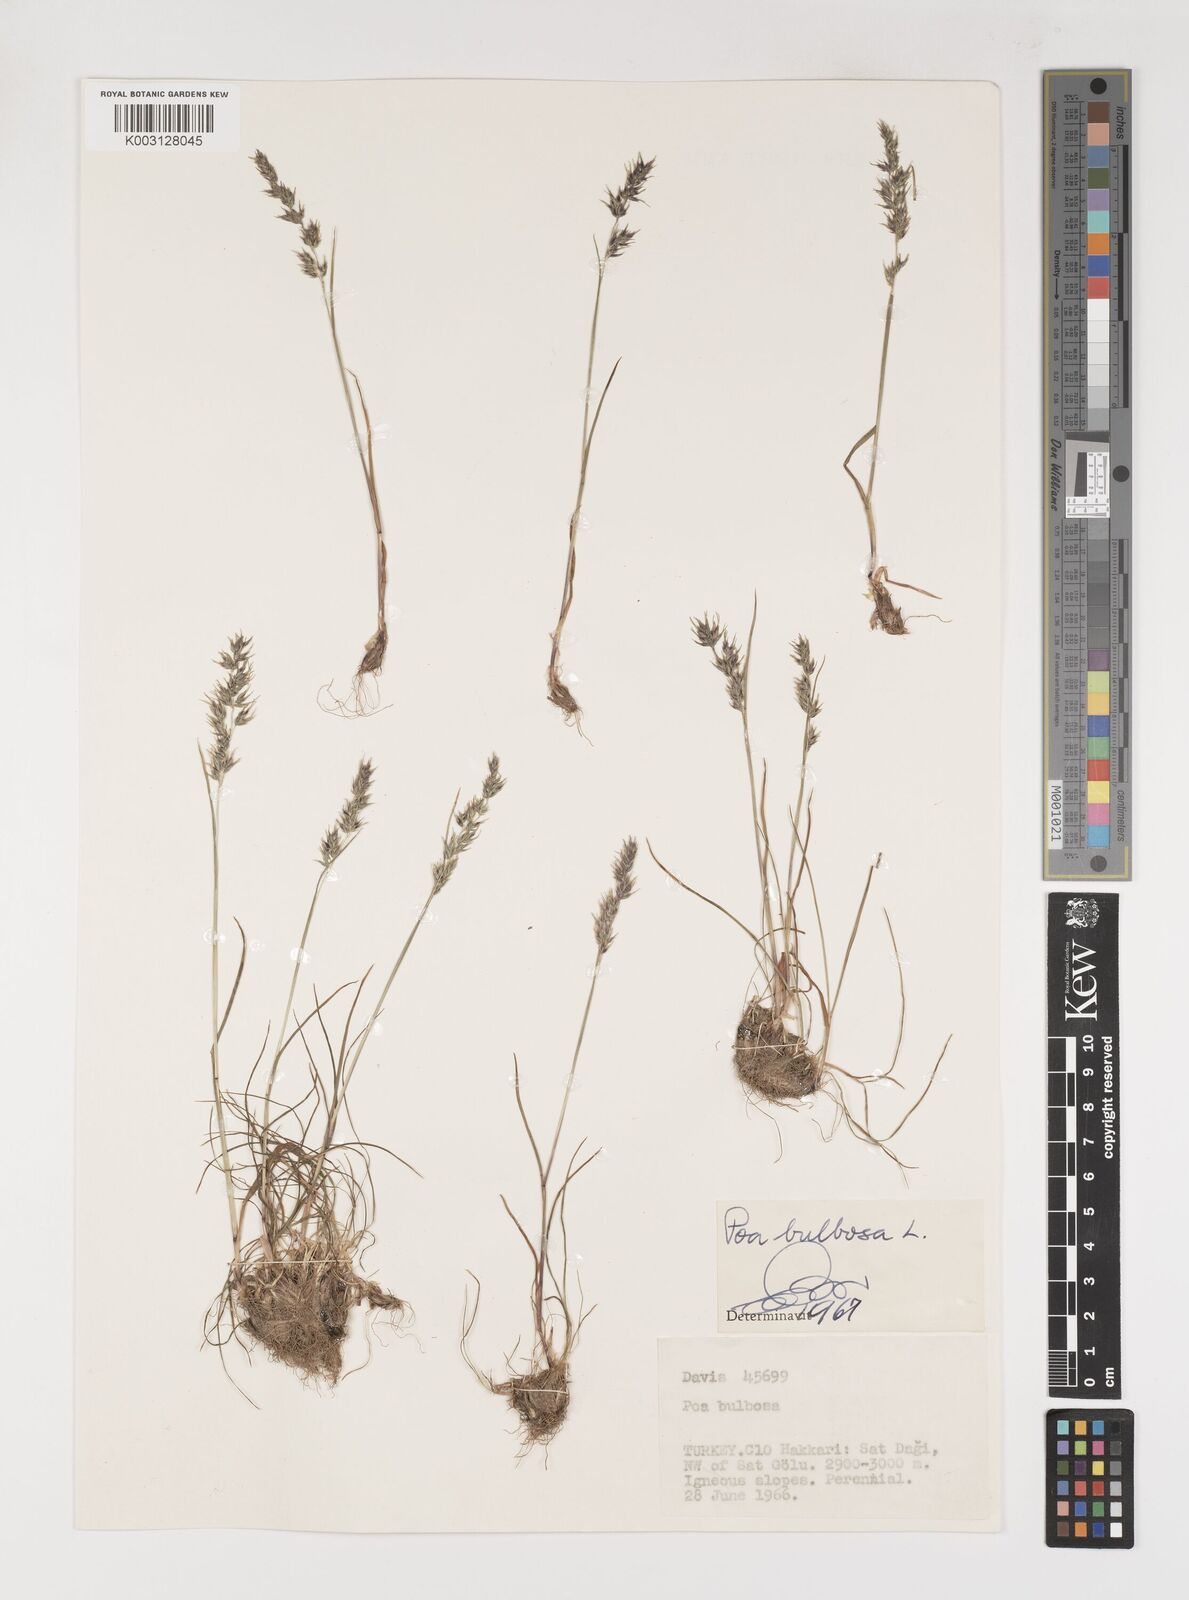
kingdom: Plantae
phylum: Tracheophyta
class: Liliopsida
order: Poales
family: Poaceae
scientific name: Poaceae
